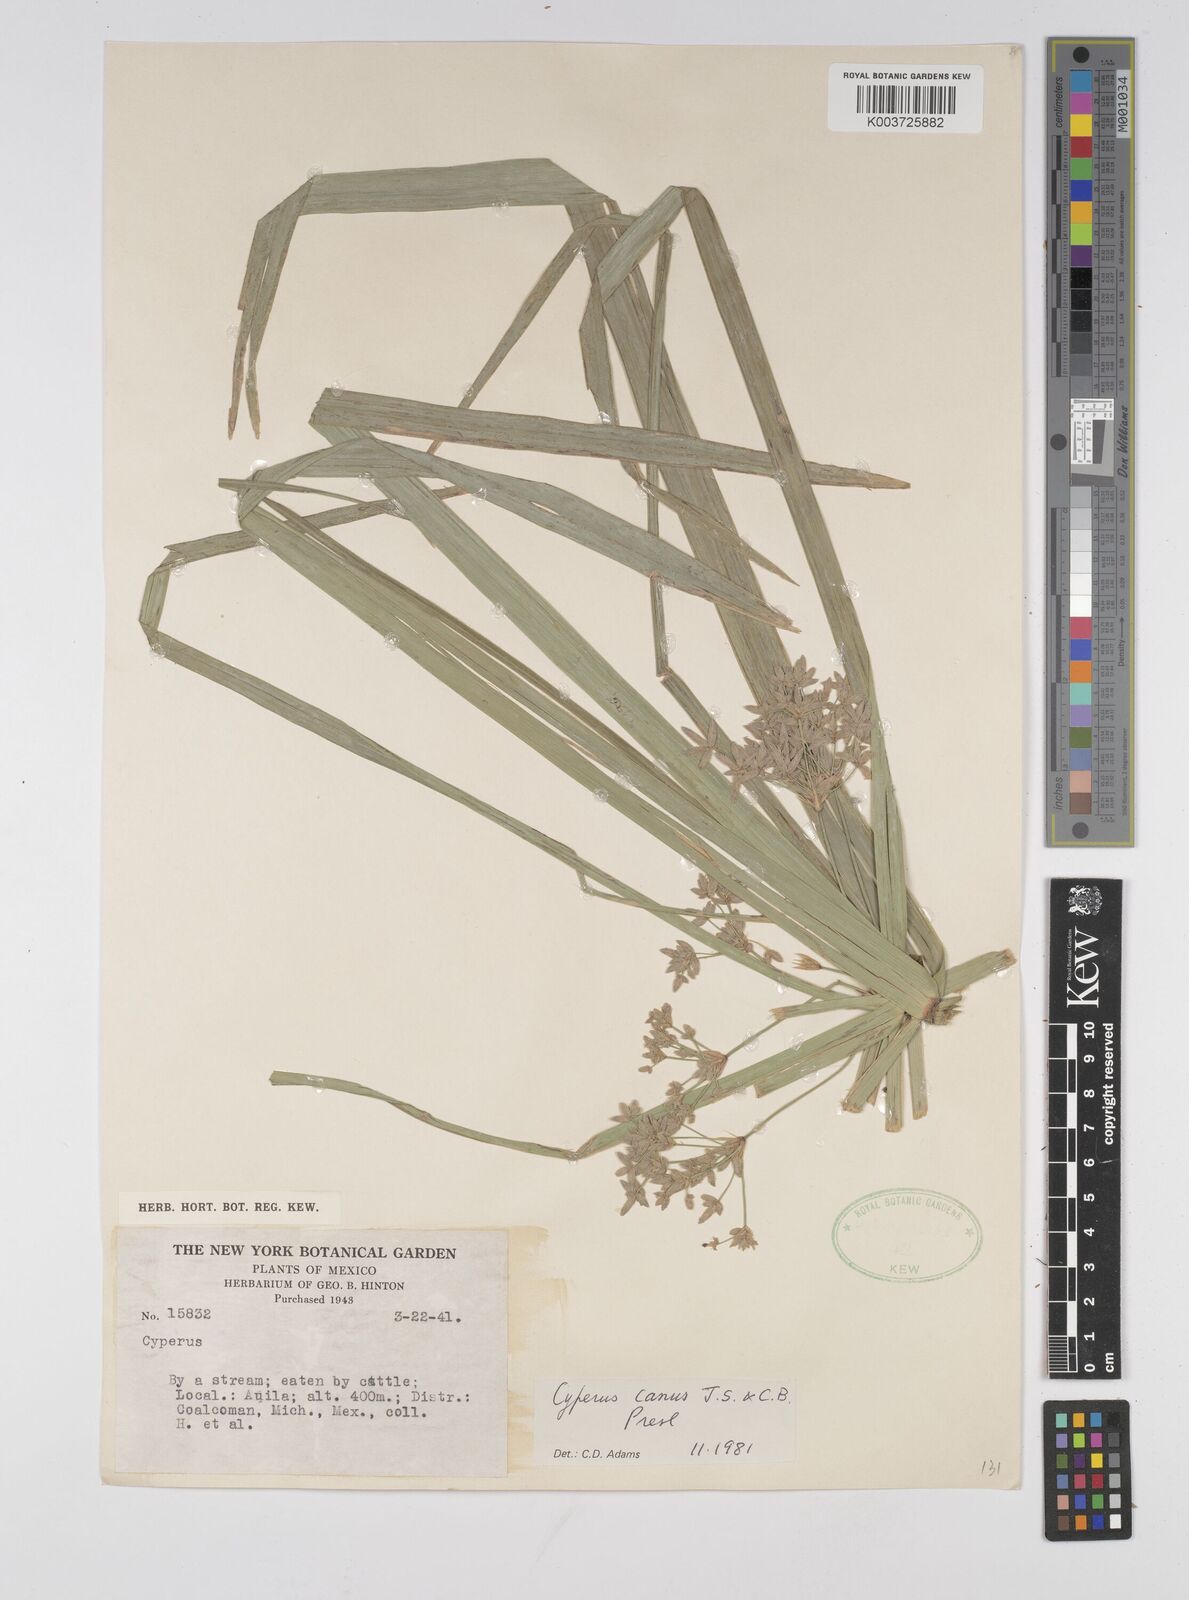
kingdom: Plantae
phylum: Tracheophyta
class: Liliopsida
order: Poales
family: Cyperaceae
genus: Cyperus
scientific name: Cyperus canus
